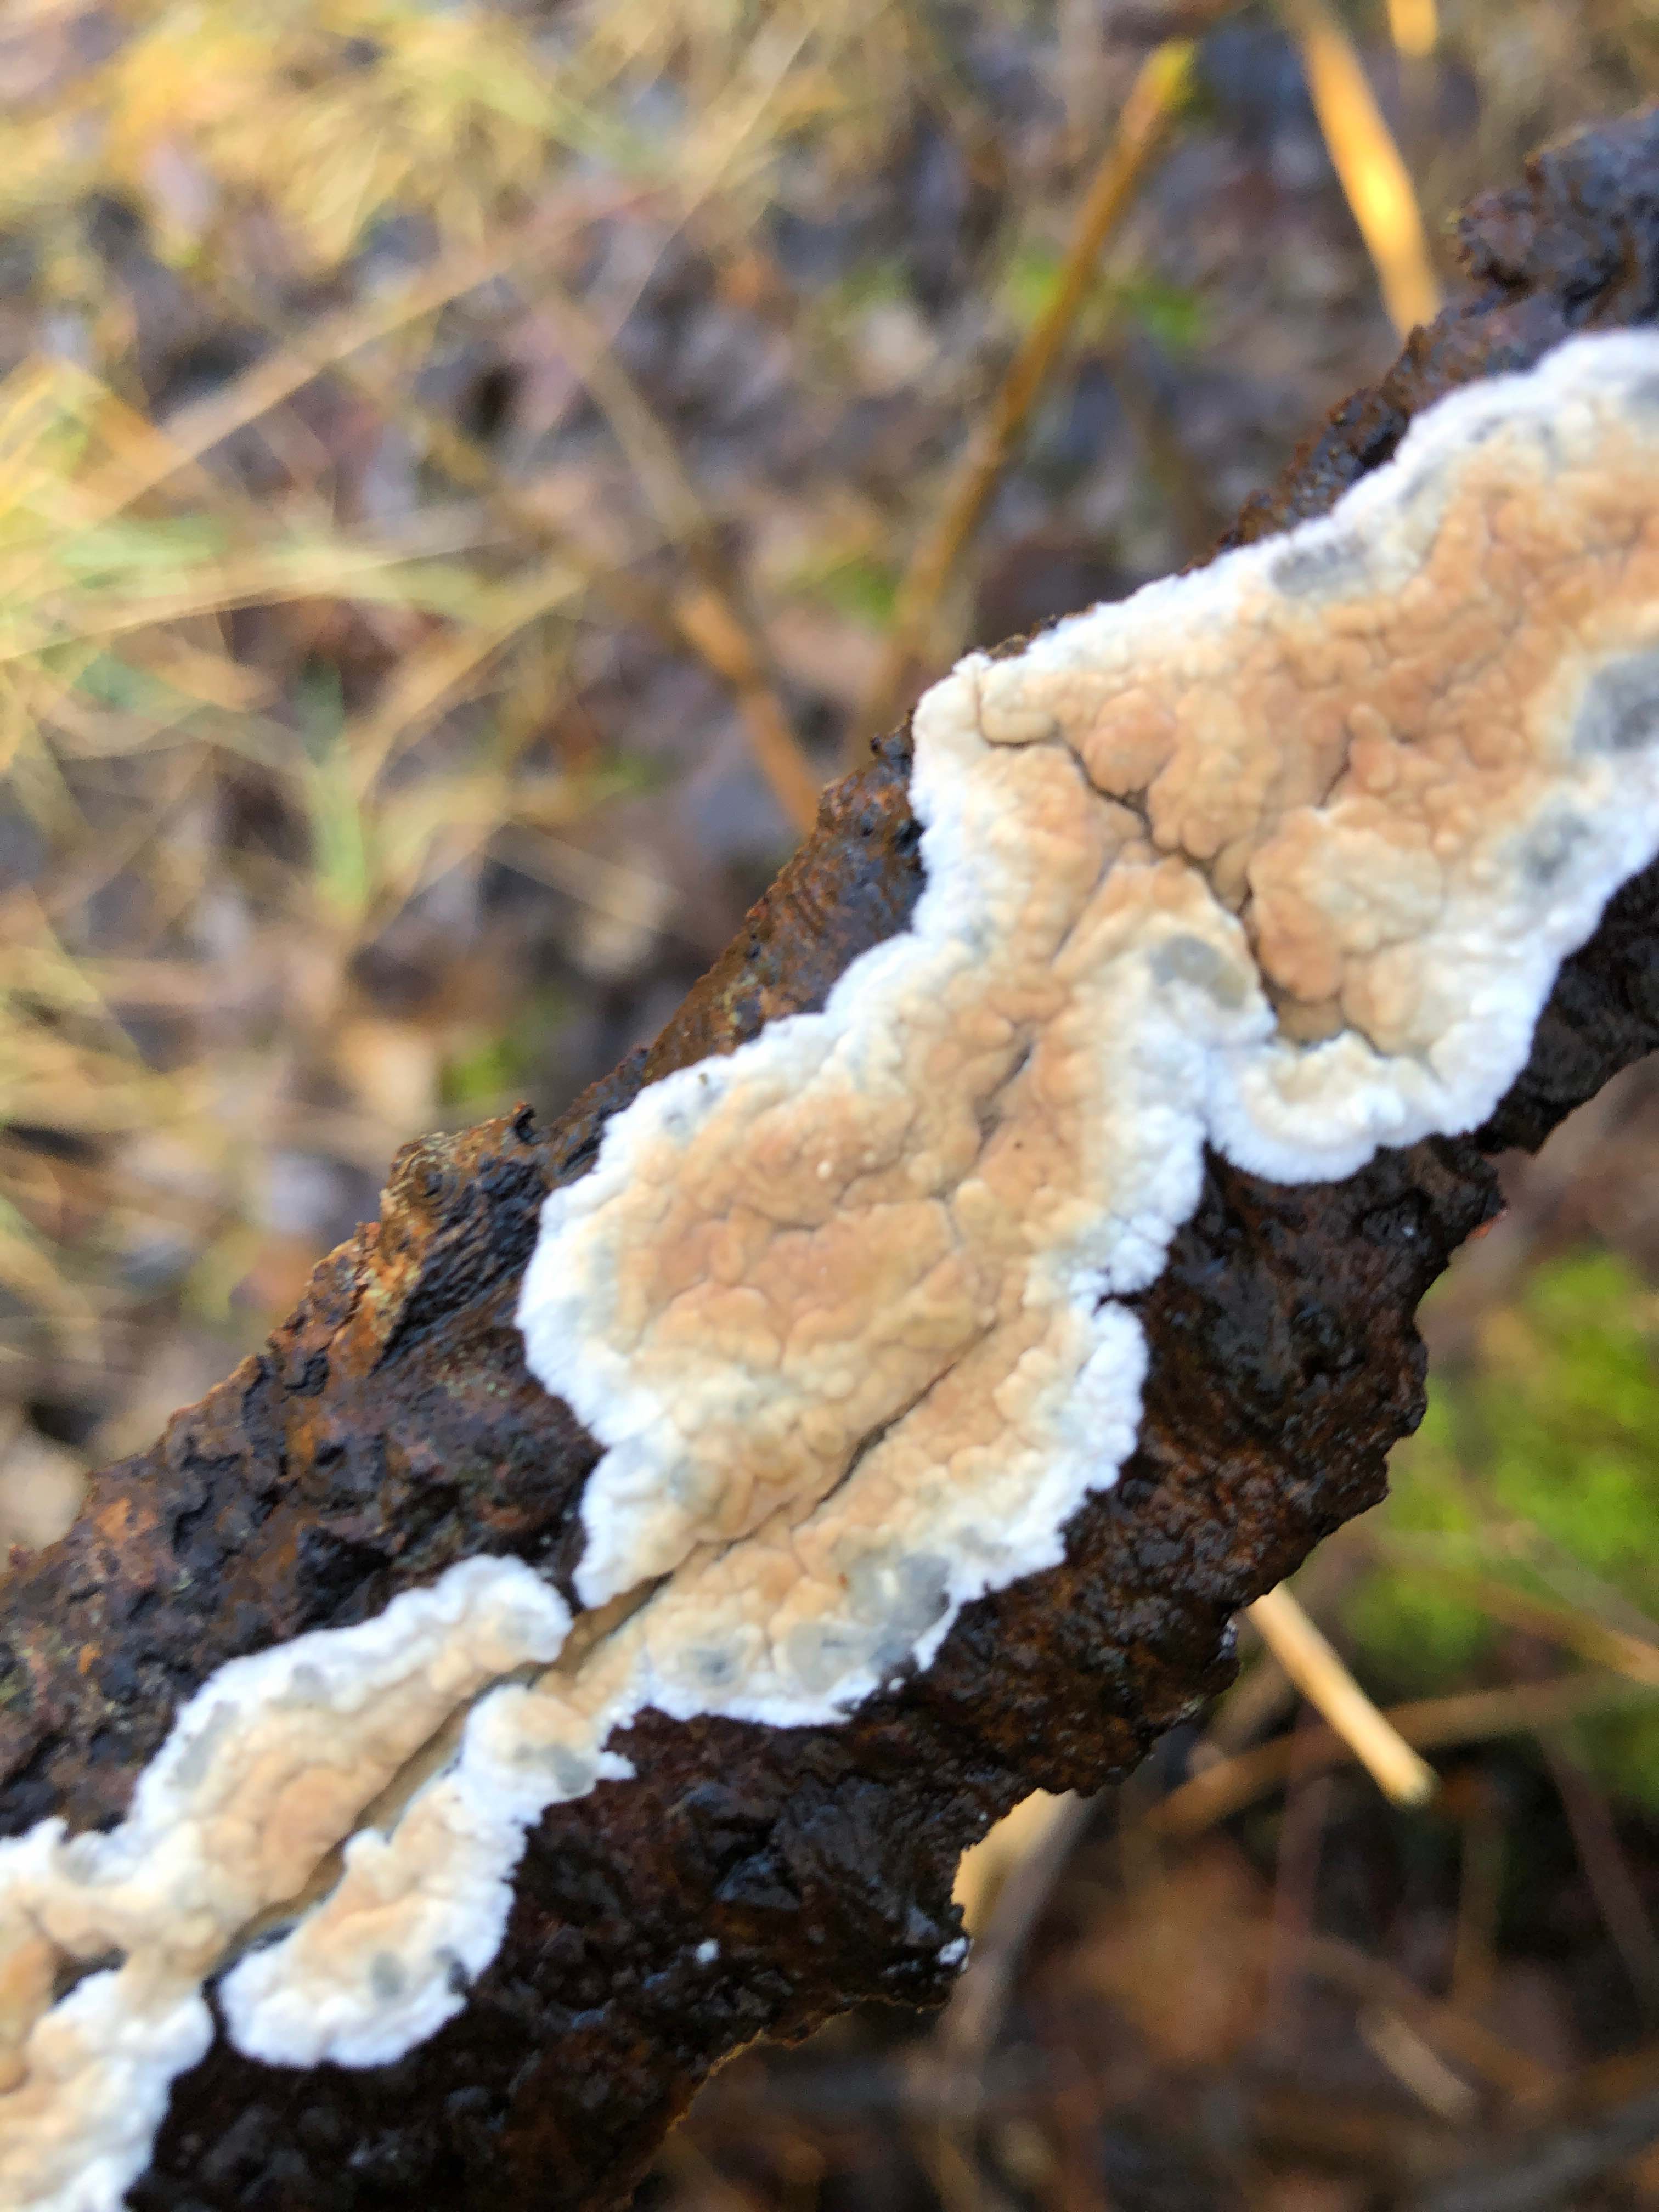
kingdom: Fungi
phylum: Basidiomycota
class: Agaricomycetes
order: Agaricales
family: Physalacriaceae
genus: Cylindrobasidium
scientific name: Cylindrobasidium evolvens
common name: sprækkehinde
